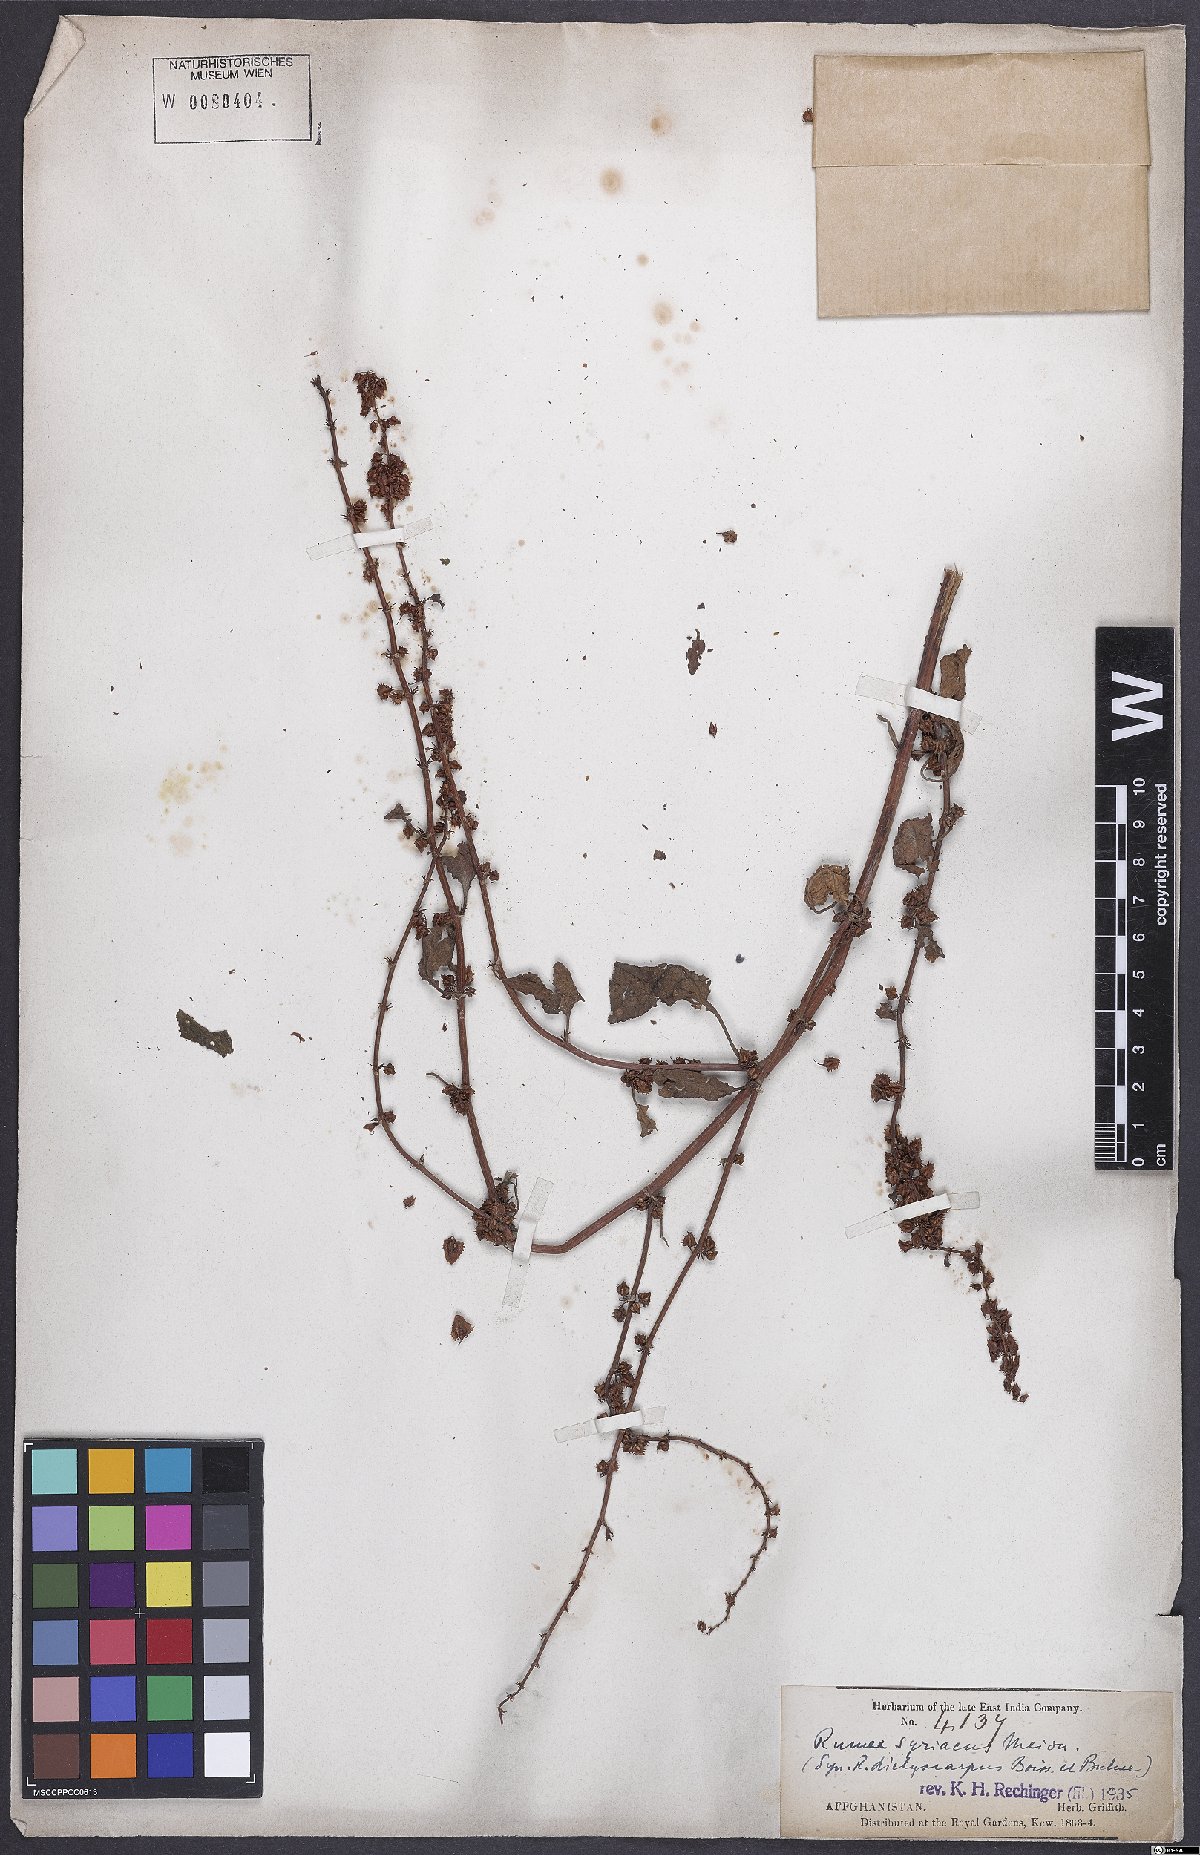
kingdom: Plantae
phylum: Tracheophyta
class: Magnoliopsida
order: Caryophyllales
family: Polygonaceae
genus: Rumex
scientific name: Rumex
